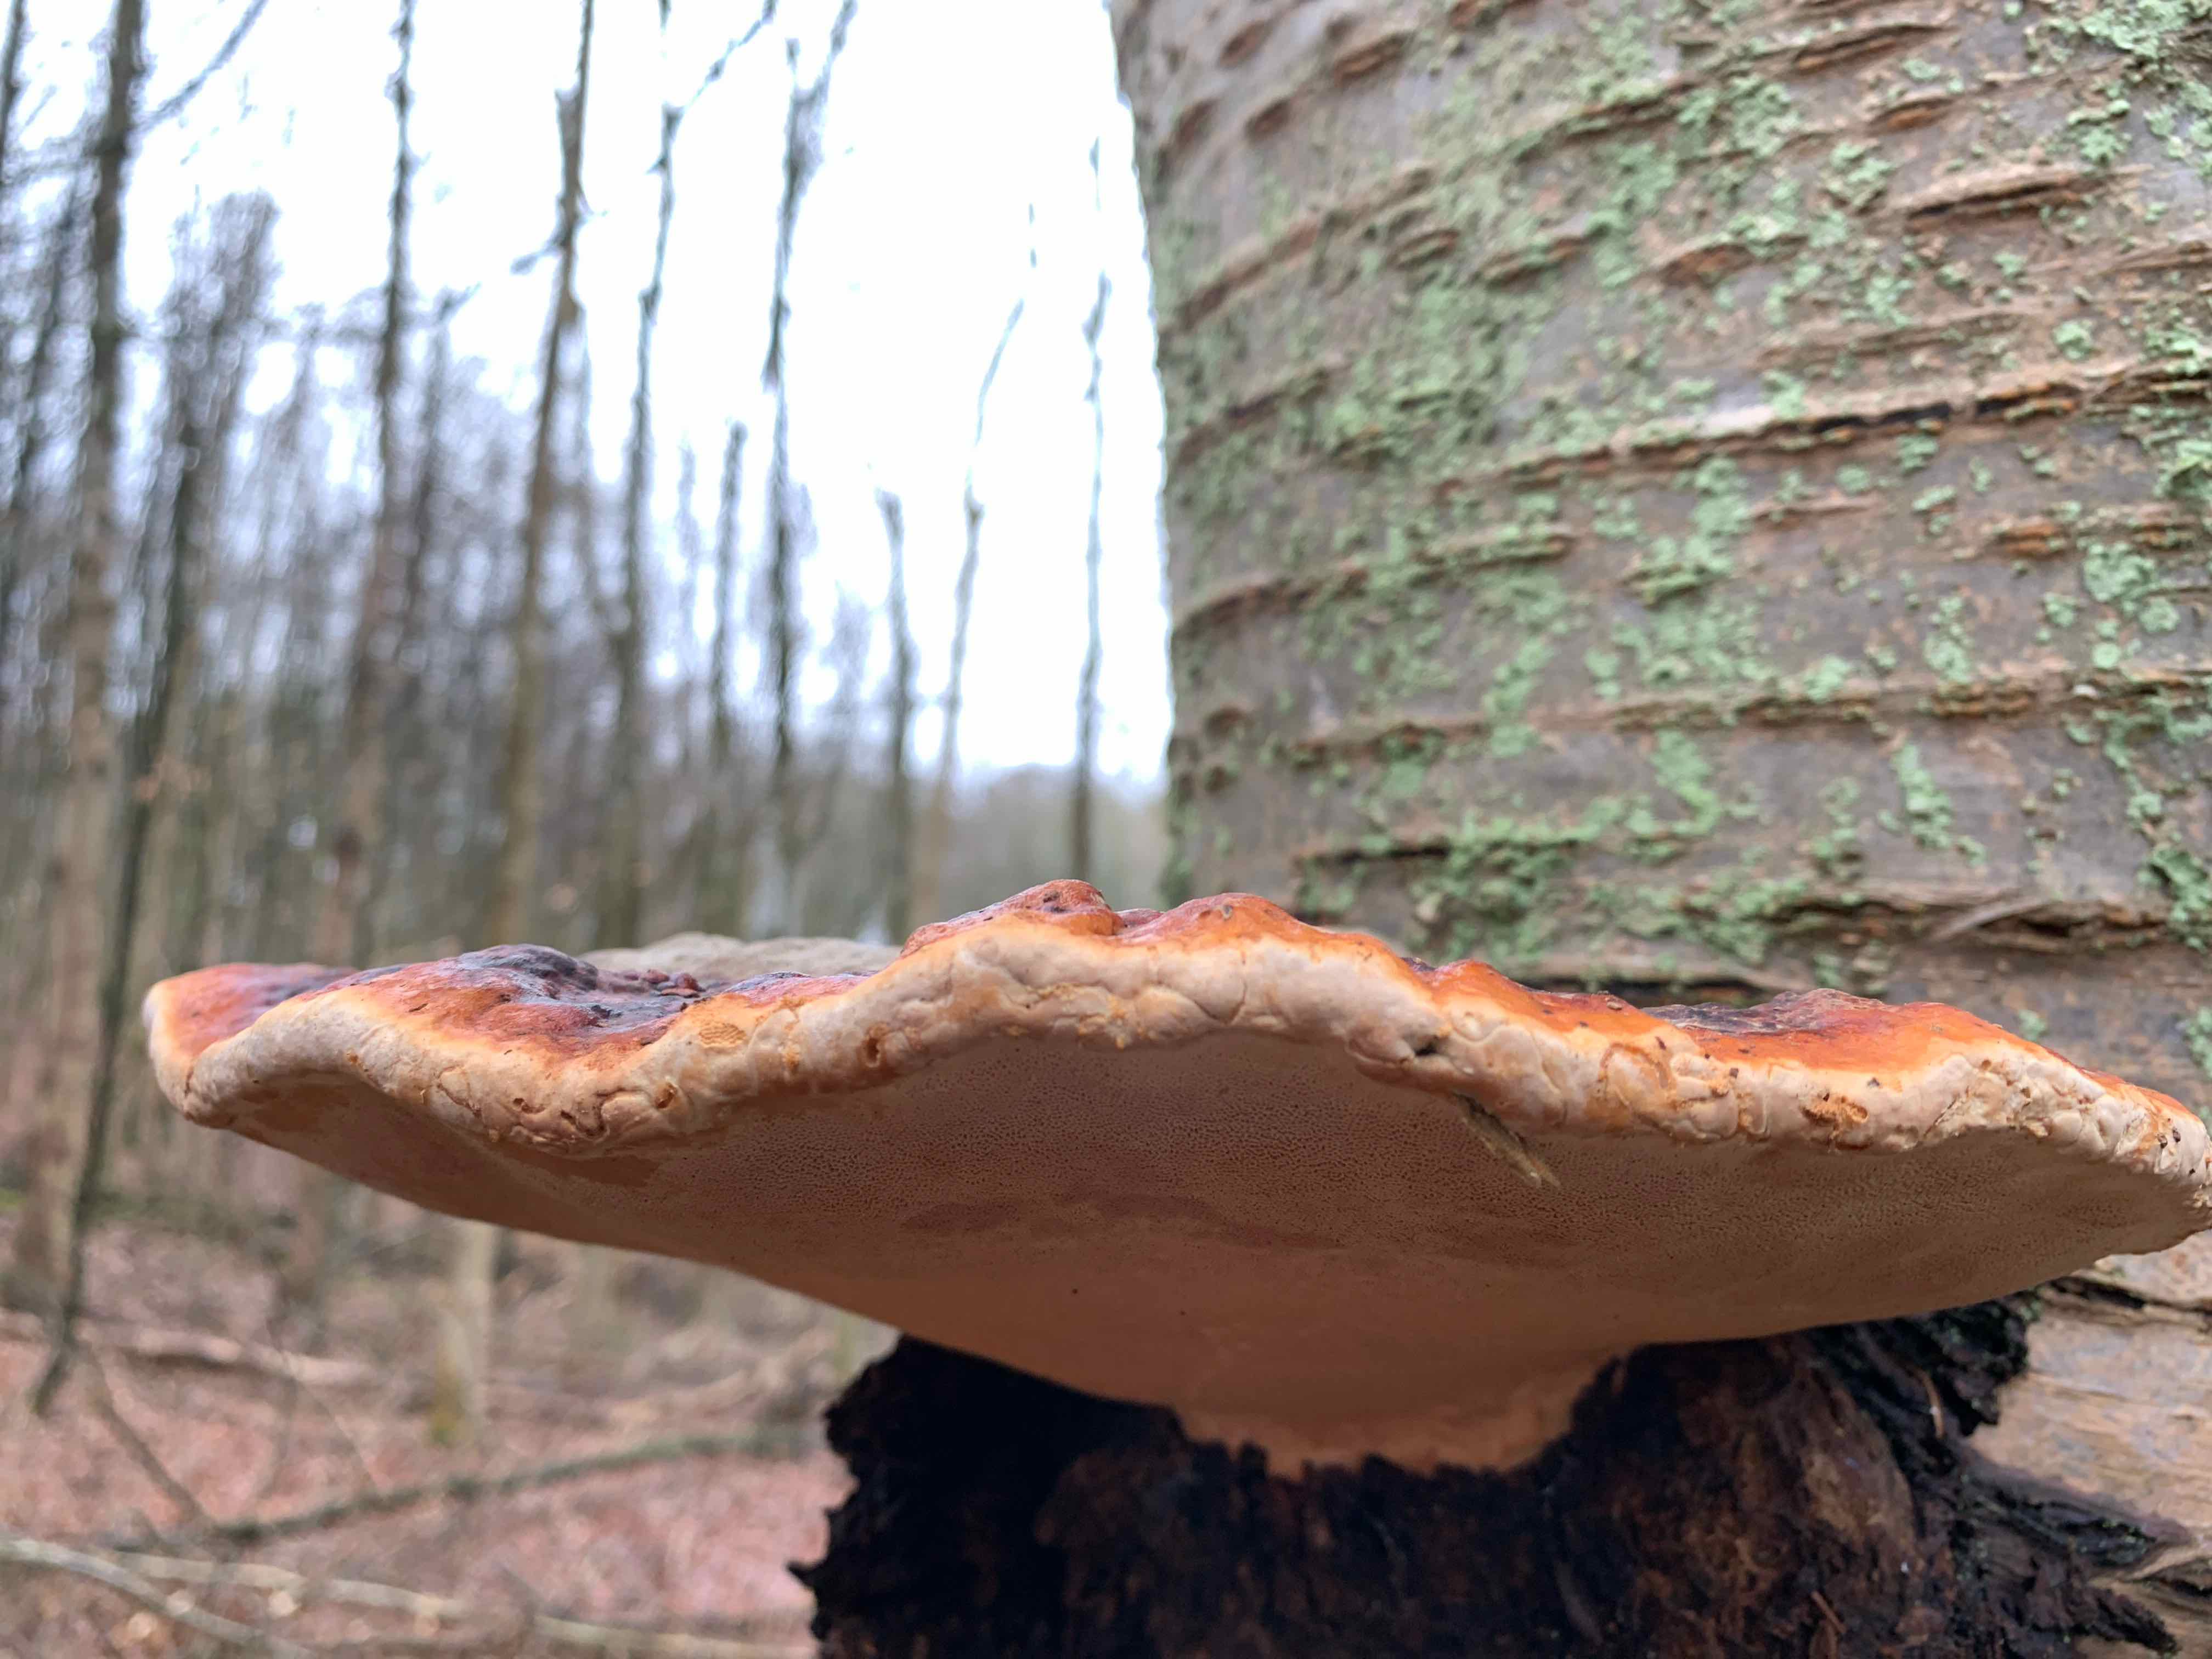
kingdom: Fungi
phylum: Basidiomycota
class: Agaricomycetes
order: Polyporales
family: Fomitopsidaceae
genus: Fomitopsis
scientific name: Fomitopsis pinicola
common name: randbæltet hovporesvamp
